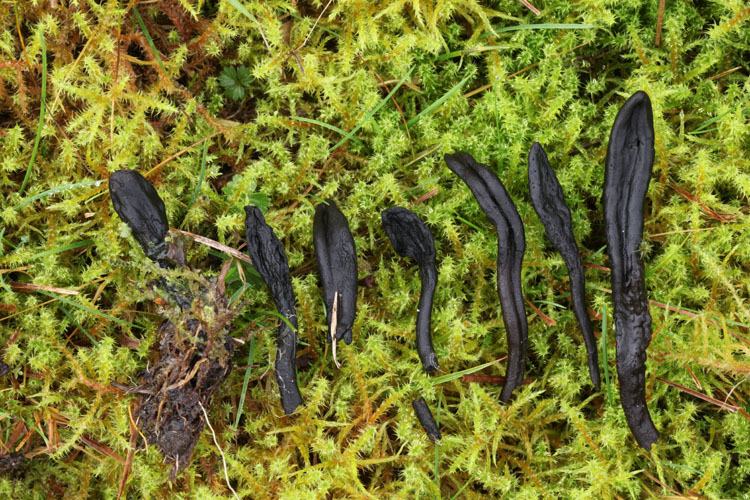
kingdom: Fungi
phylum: Ascomycota
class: Geoglossomycetes
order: Geoglossales
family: Geoglossaceae
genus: Geoglossum
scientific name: Geoglossum simile
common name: kær-jordtunge
